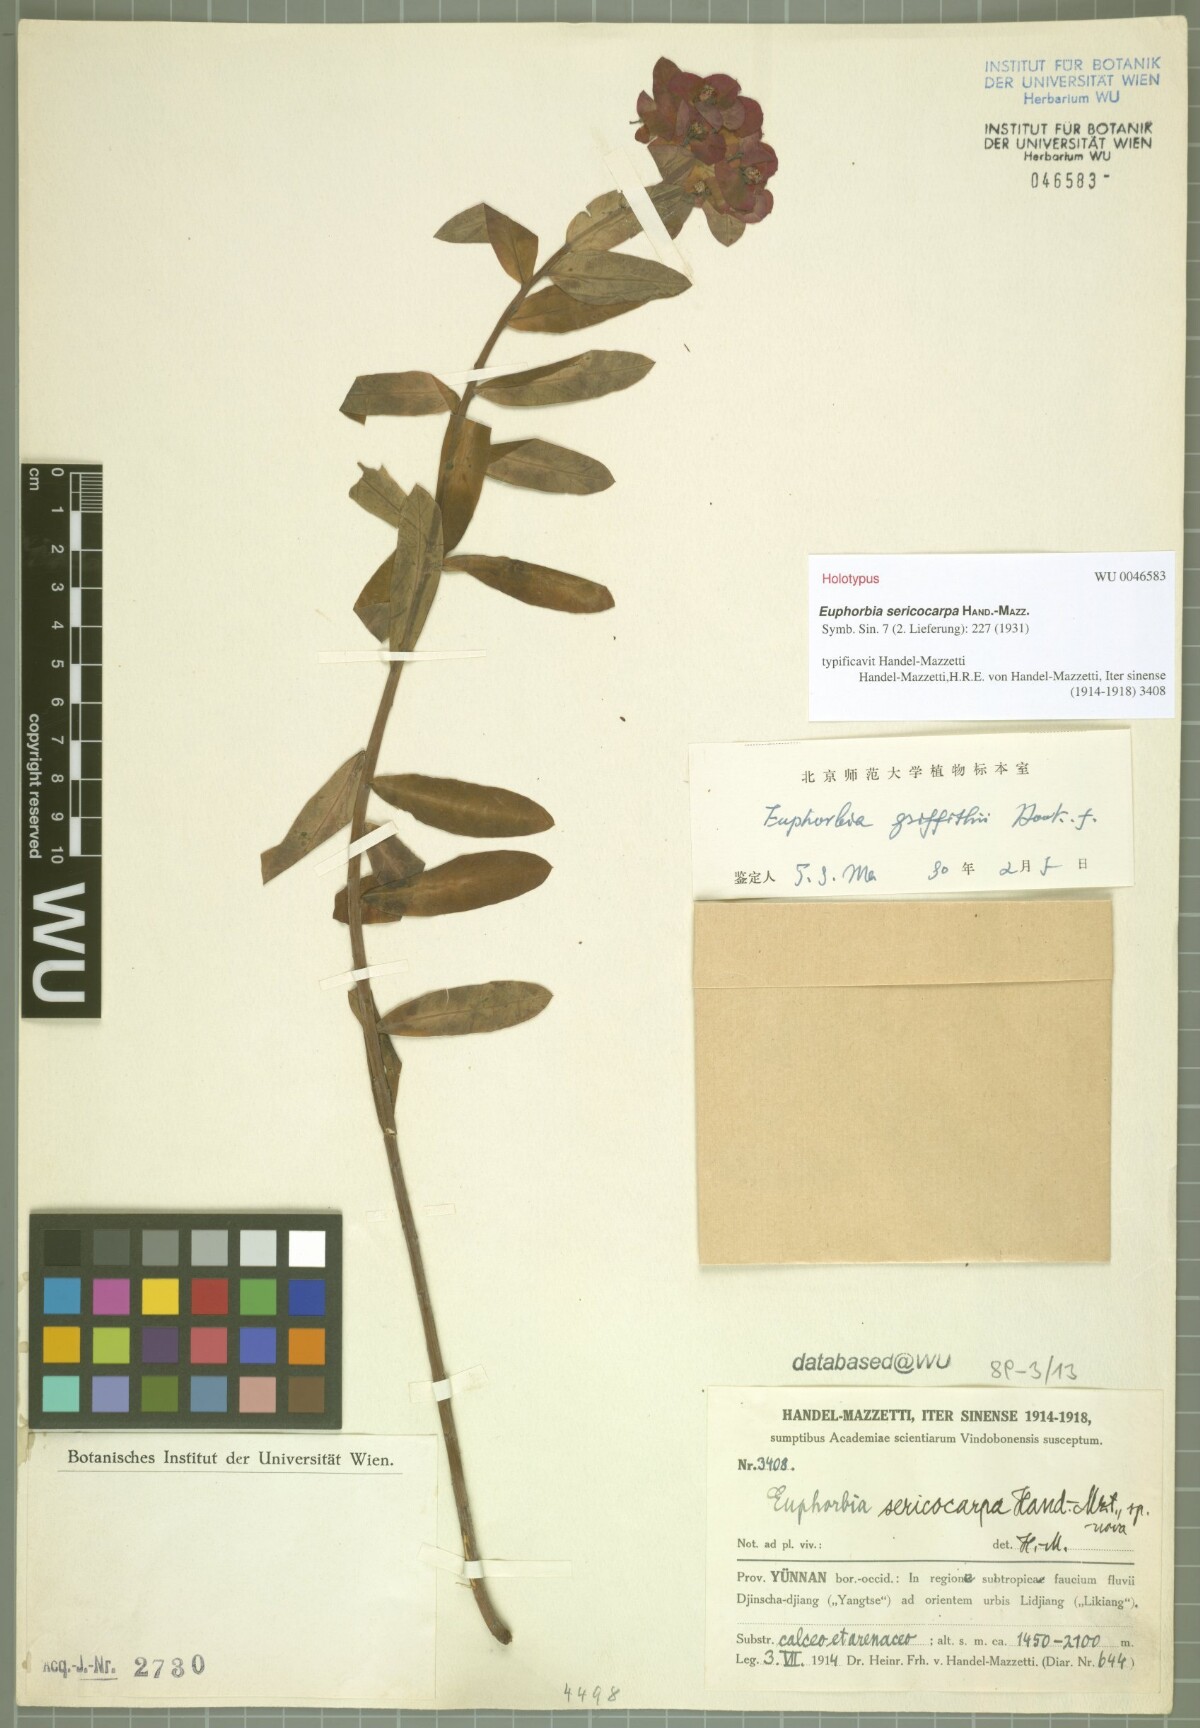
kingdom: Plantae
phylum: Tracheophyta
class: Magnoliopsida
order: Malpighiales
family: Euphorbiaceae
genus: Euphorbia
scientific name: Euphorbia griffithii
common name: Griffith's spurge
